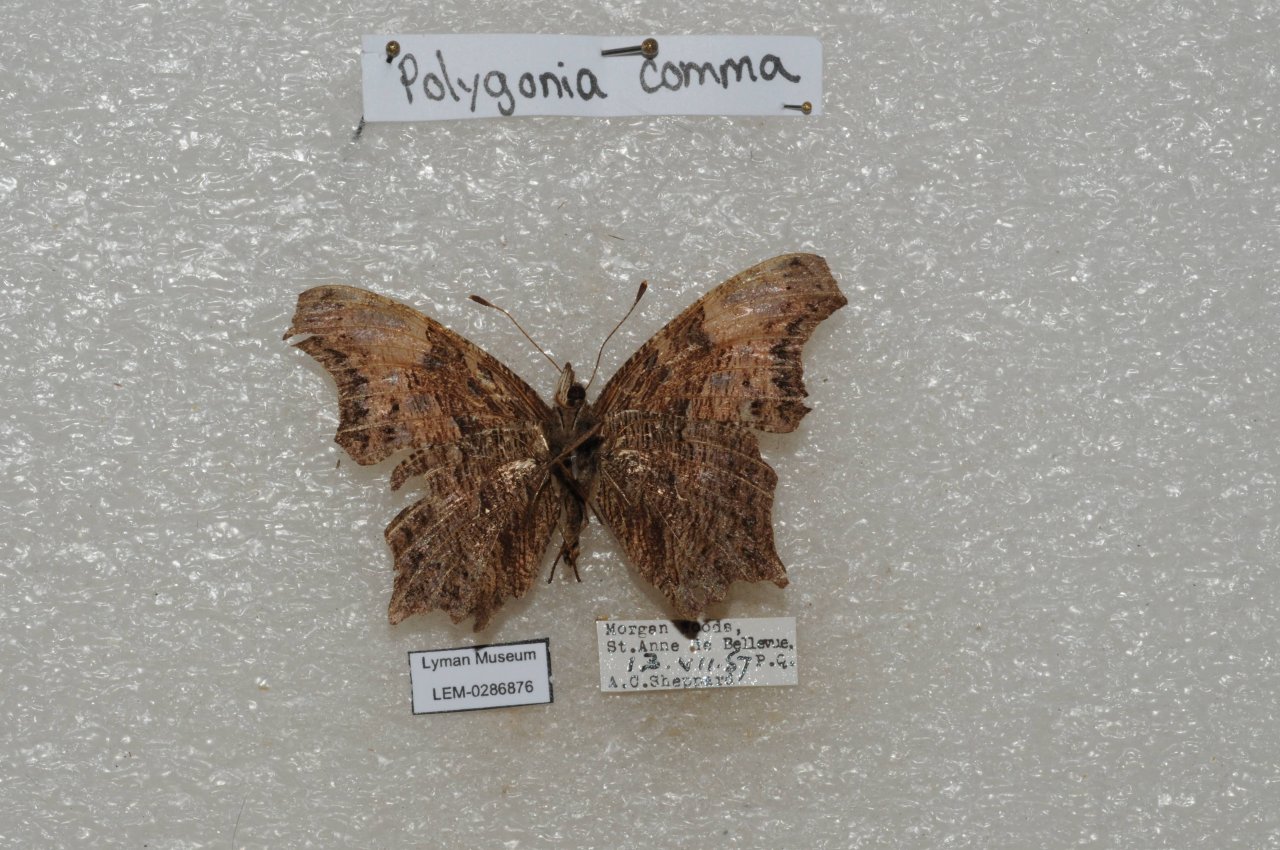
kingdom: Animalia
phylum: Arthropoda
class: Insecta
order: Lepidoptera
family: Nymphalidae
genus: Polygonia
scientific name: Polygonia progne
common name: Gray Comma
